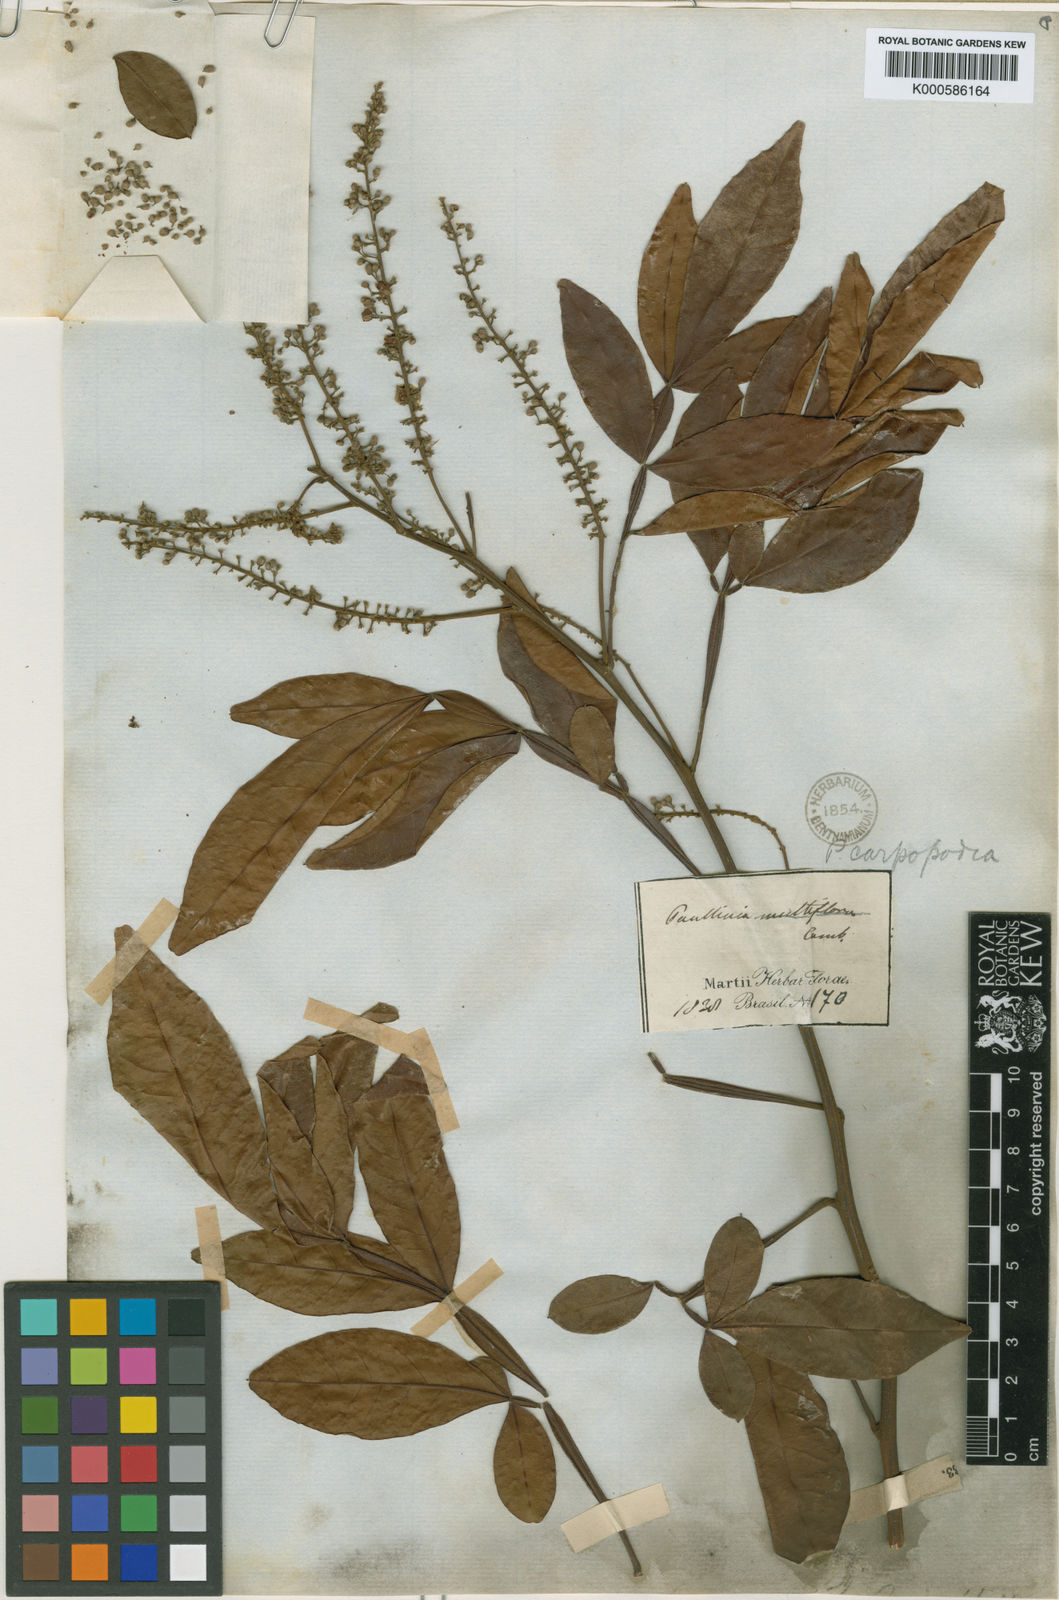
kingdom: Plantae
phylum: Tracheophyta
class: Magnoliopsida
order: Sapindales
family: Sapindaceae
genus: Paullinia
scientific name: Paullinia carpopodea
